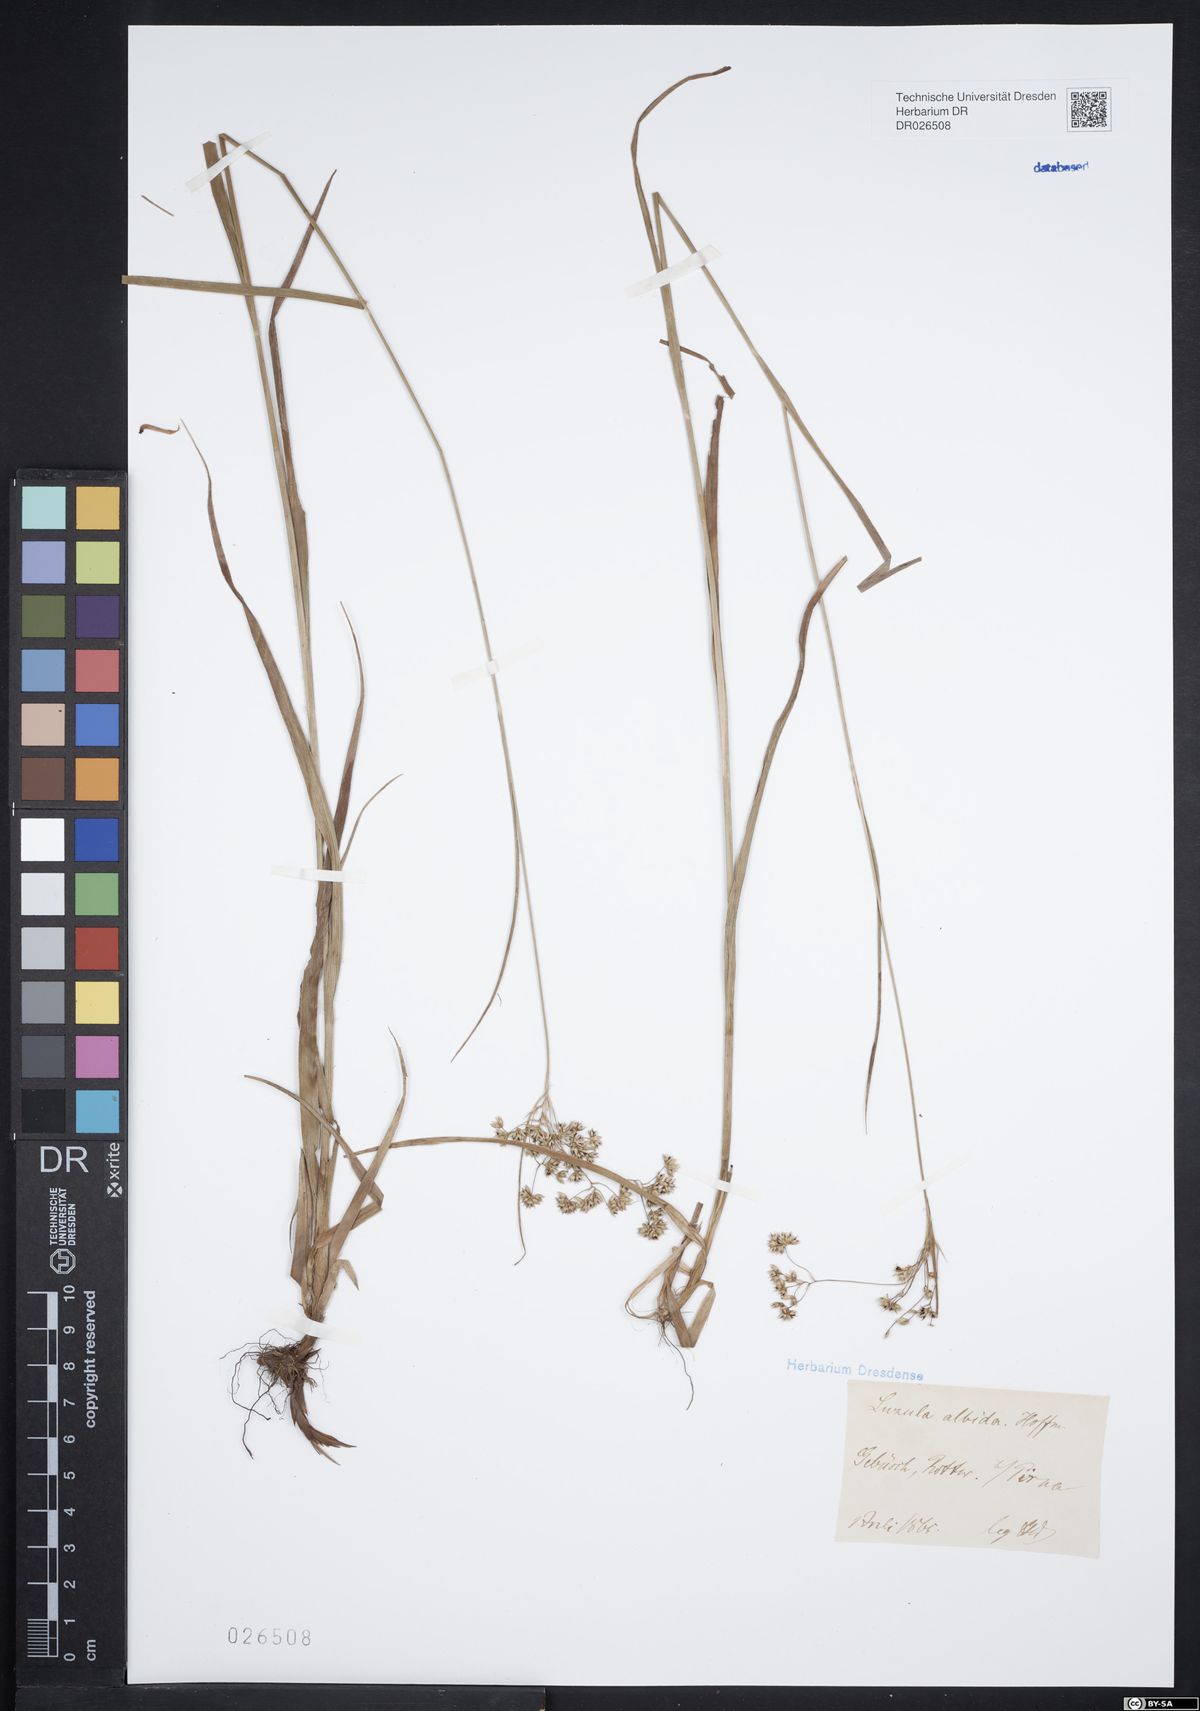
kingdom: Plantae
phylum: Tracheophyta
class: Liliopsida
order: Poales
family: Juncaceae
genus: Luzula
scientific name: Luzula luzuloides
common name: White wood-rush
